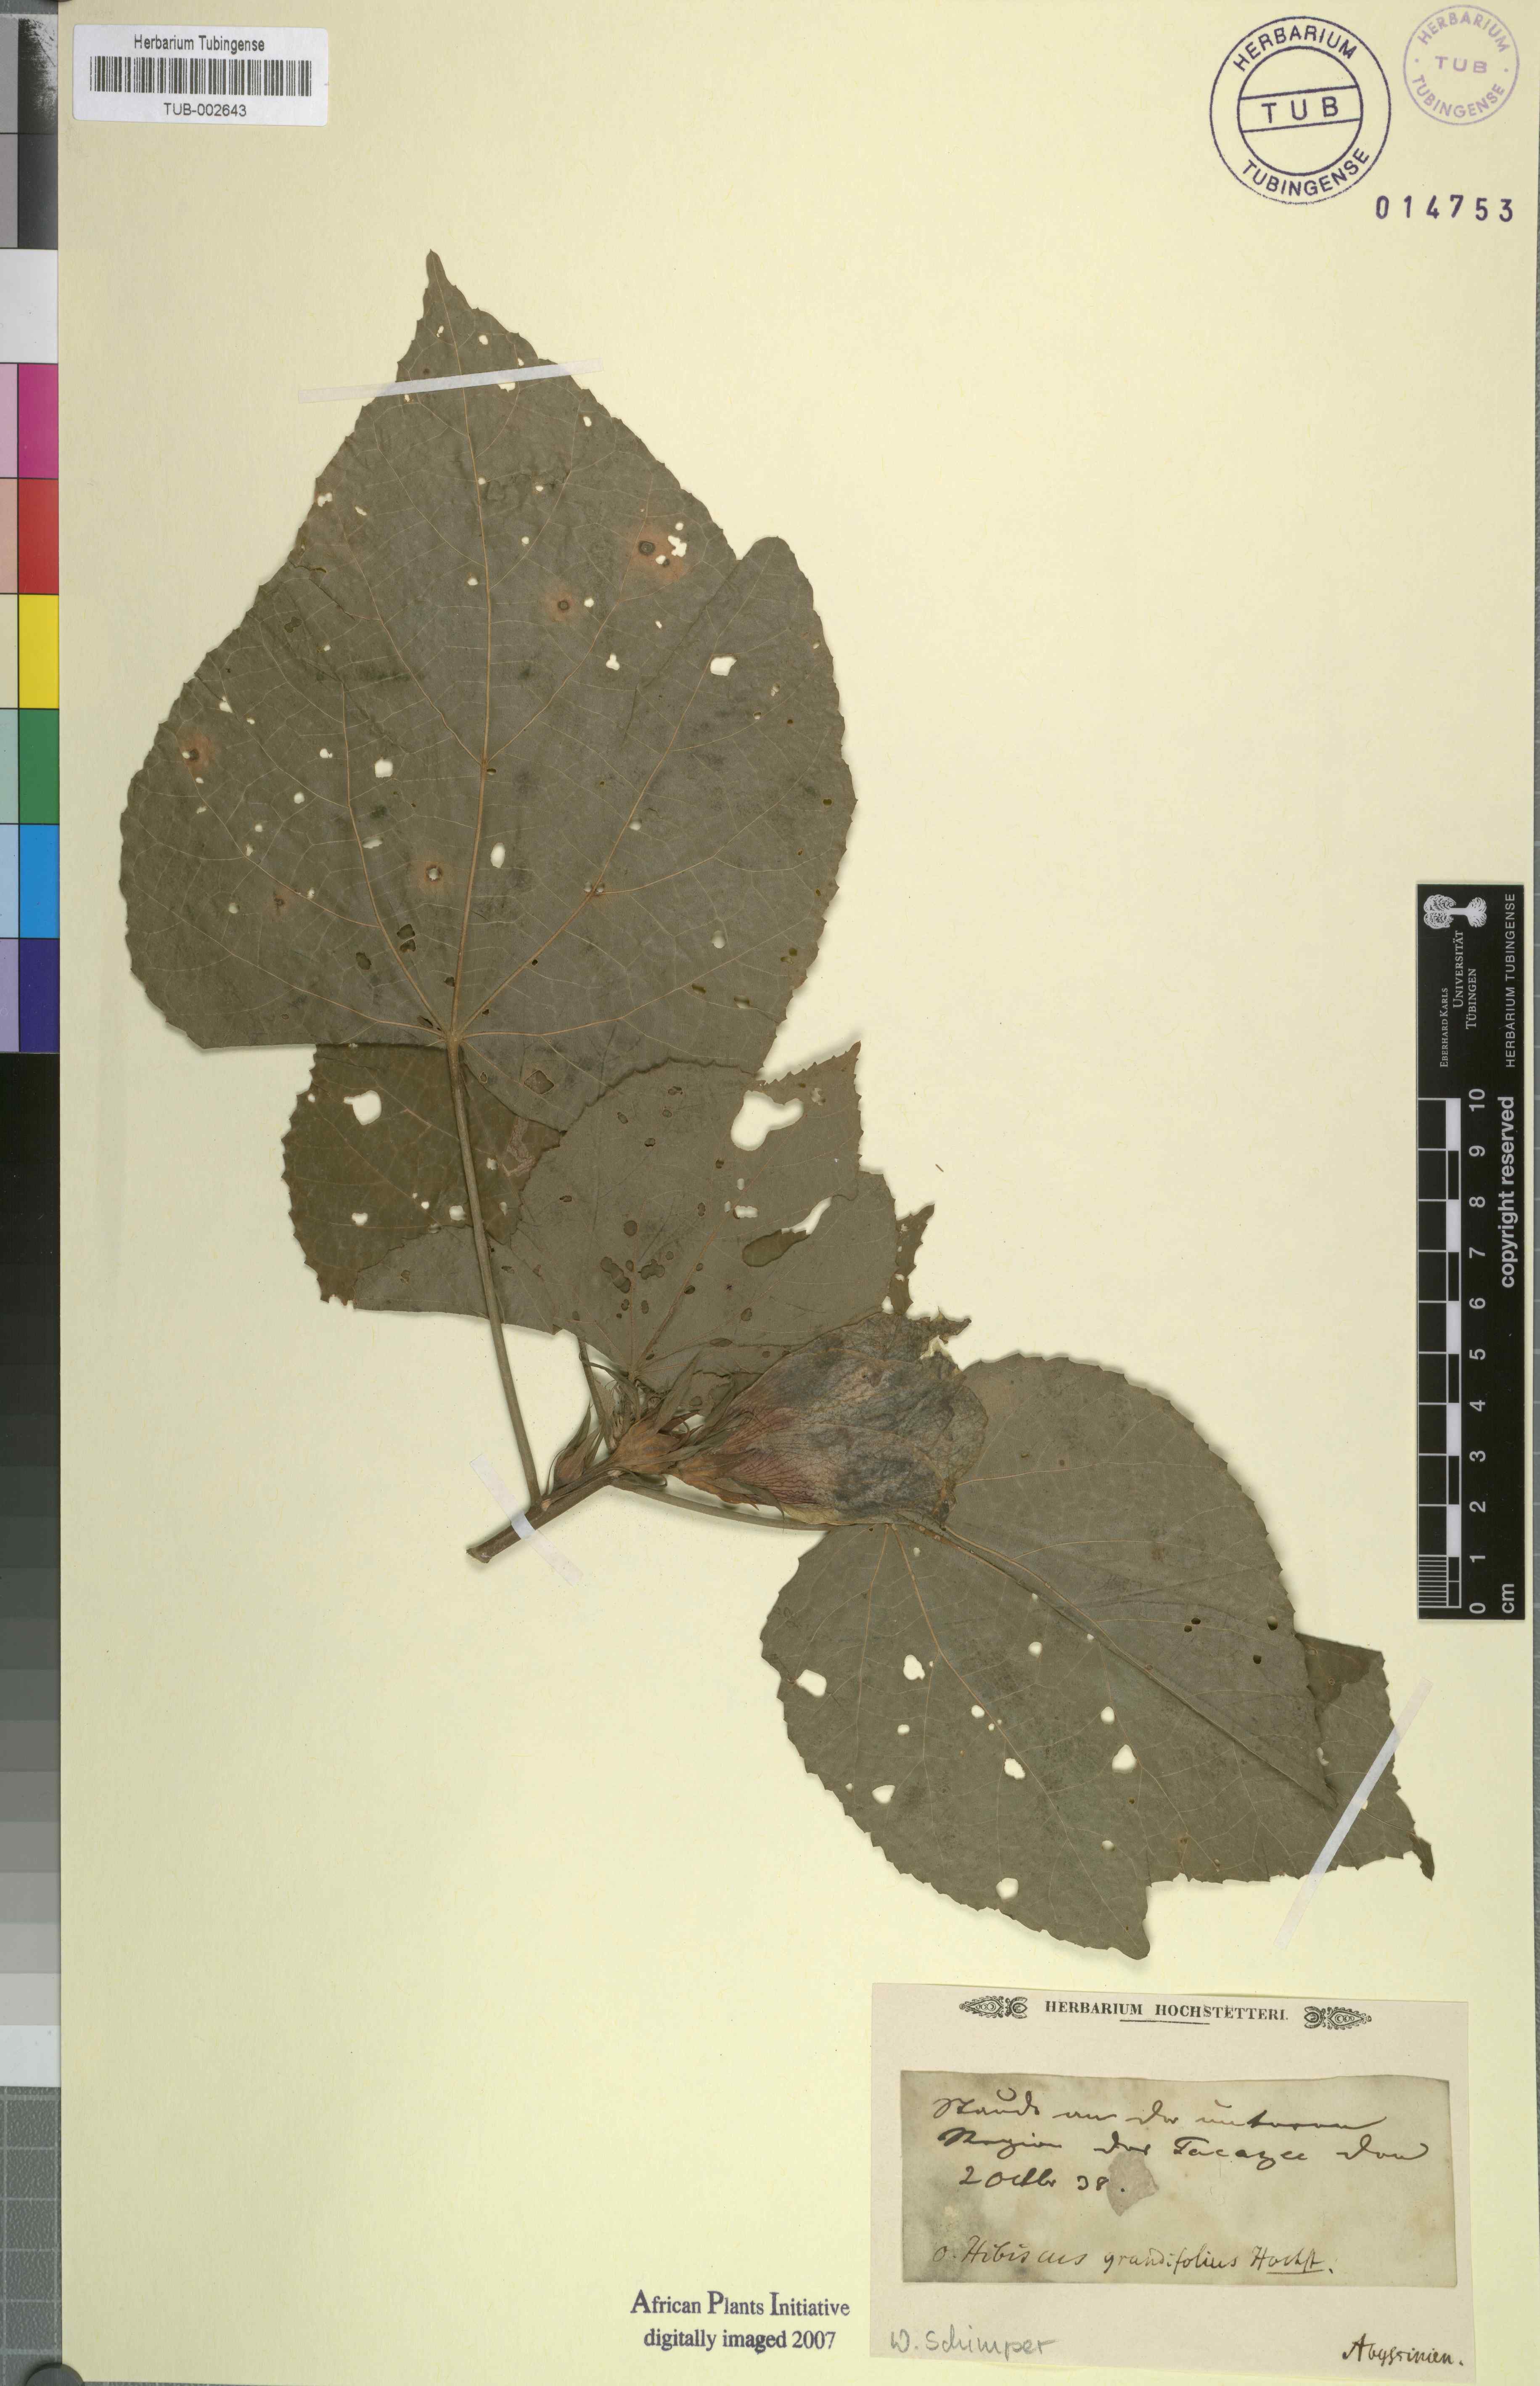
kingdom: Plantae
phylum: Tracheophyta
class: Magnoliopsida
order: Malvales
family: Malvaceae
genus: Hibiscus
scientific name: Hibiscus calyphyllus
